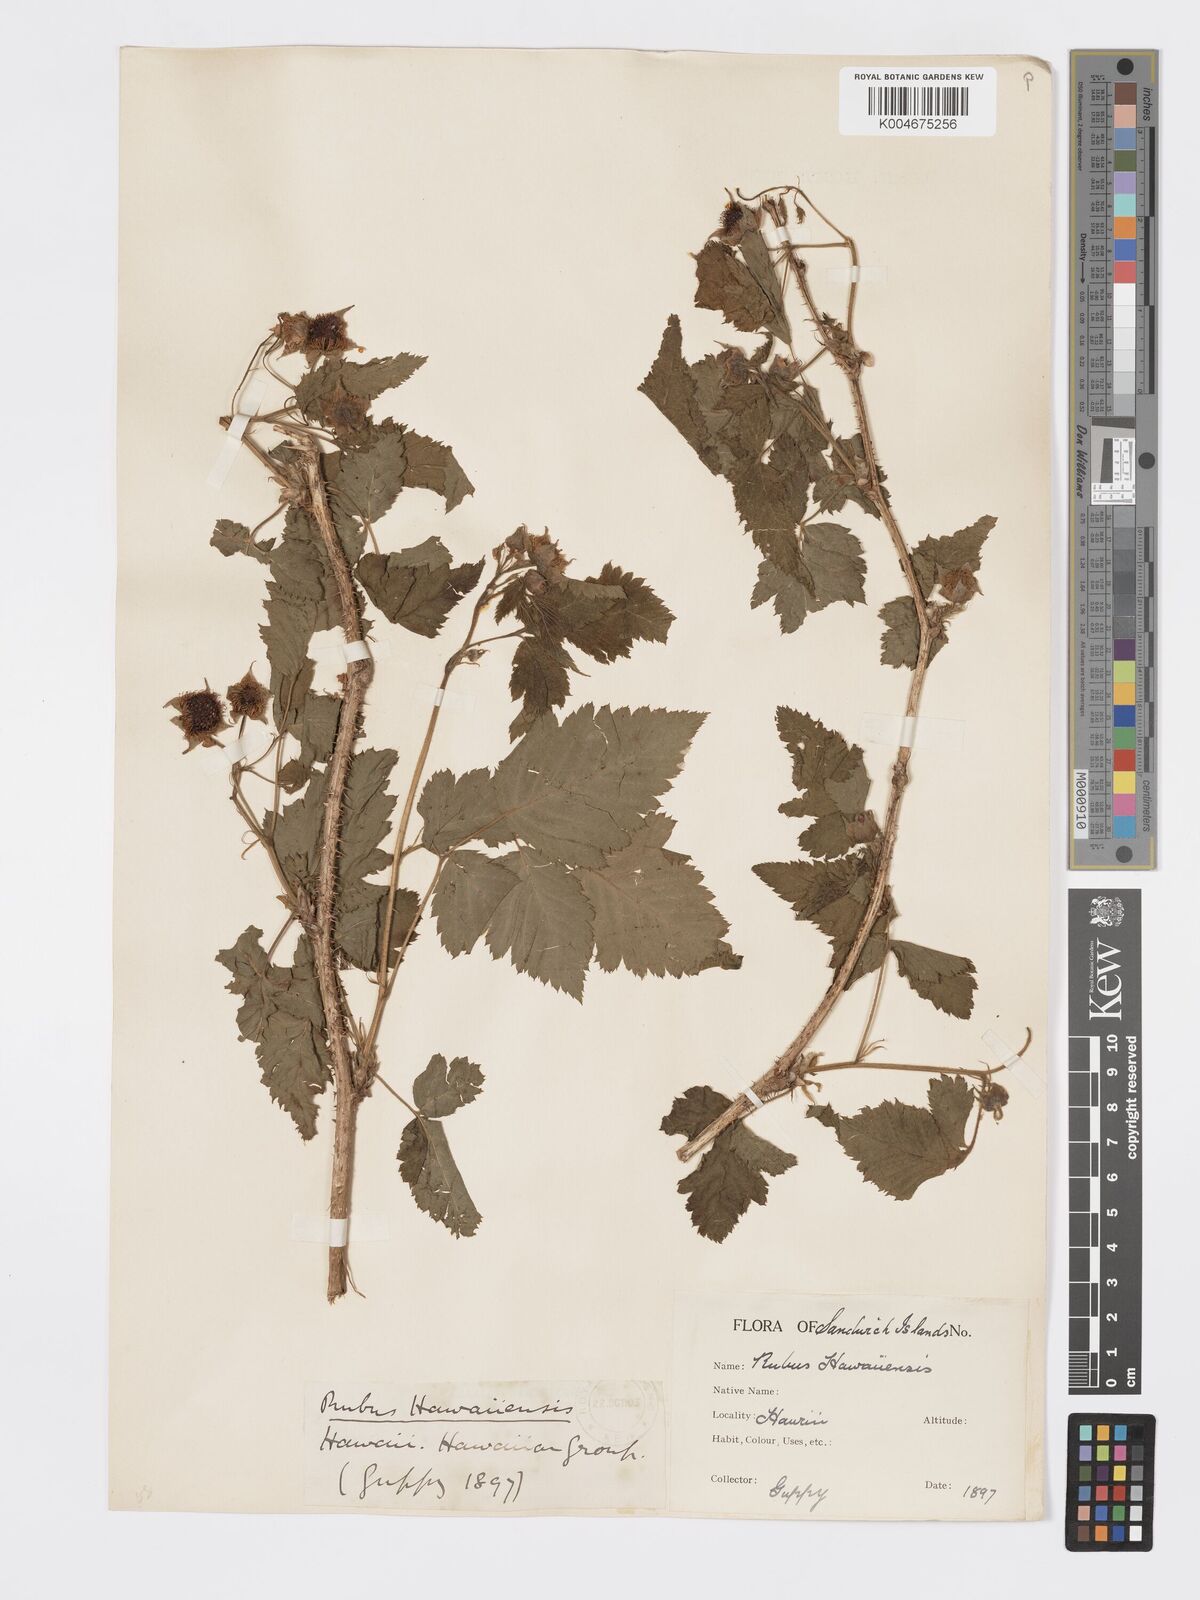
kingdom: Plantae
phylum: Tracheophyta
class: Magnoliopsida
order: Rosales
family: Rosaceae
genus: Rubus
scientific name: Rubus hawaiensis
